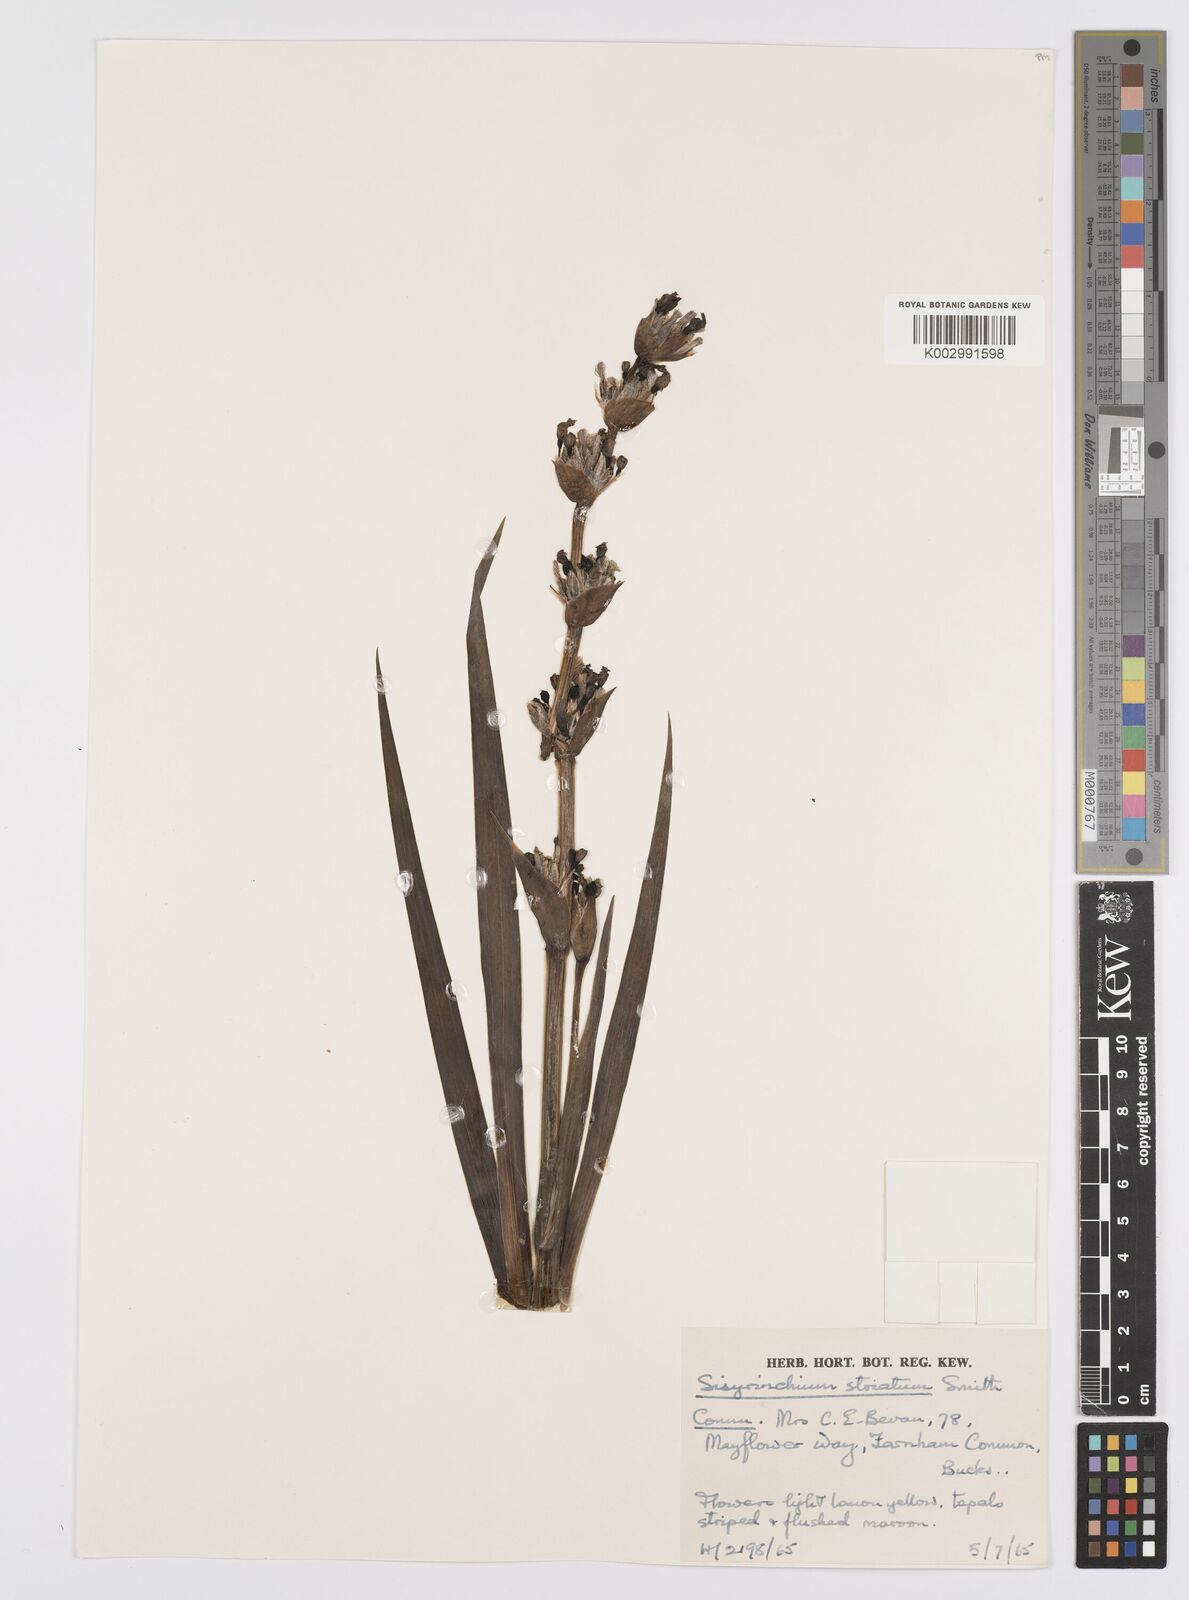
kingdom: Plantae
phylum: Tracheophyta
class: Liliopsida
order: Asparagales
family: Iridaceae
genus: Sisyrinchium
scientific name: Sisyrinchium striatum
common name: Pale yellow-eyed-grass
